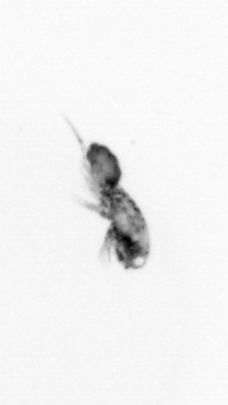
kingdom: Animalia
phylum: Arthropoda
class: Copepoda
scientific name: Copepoda
